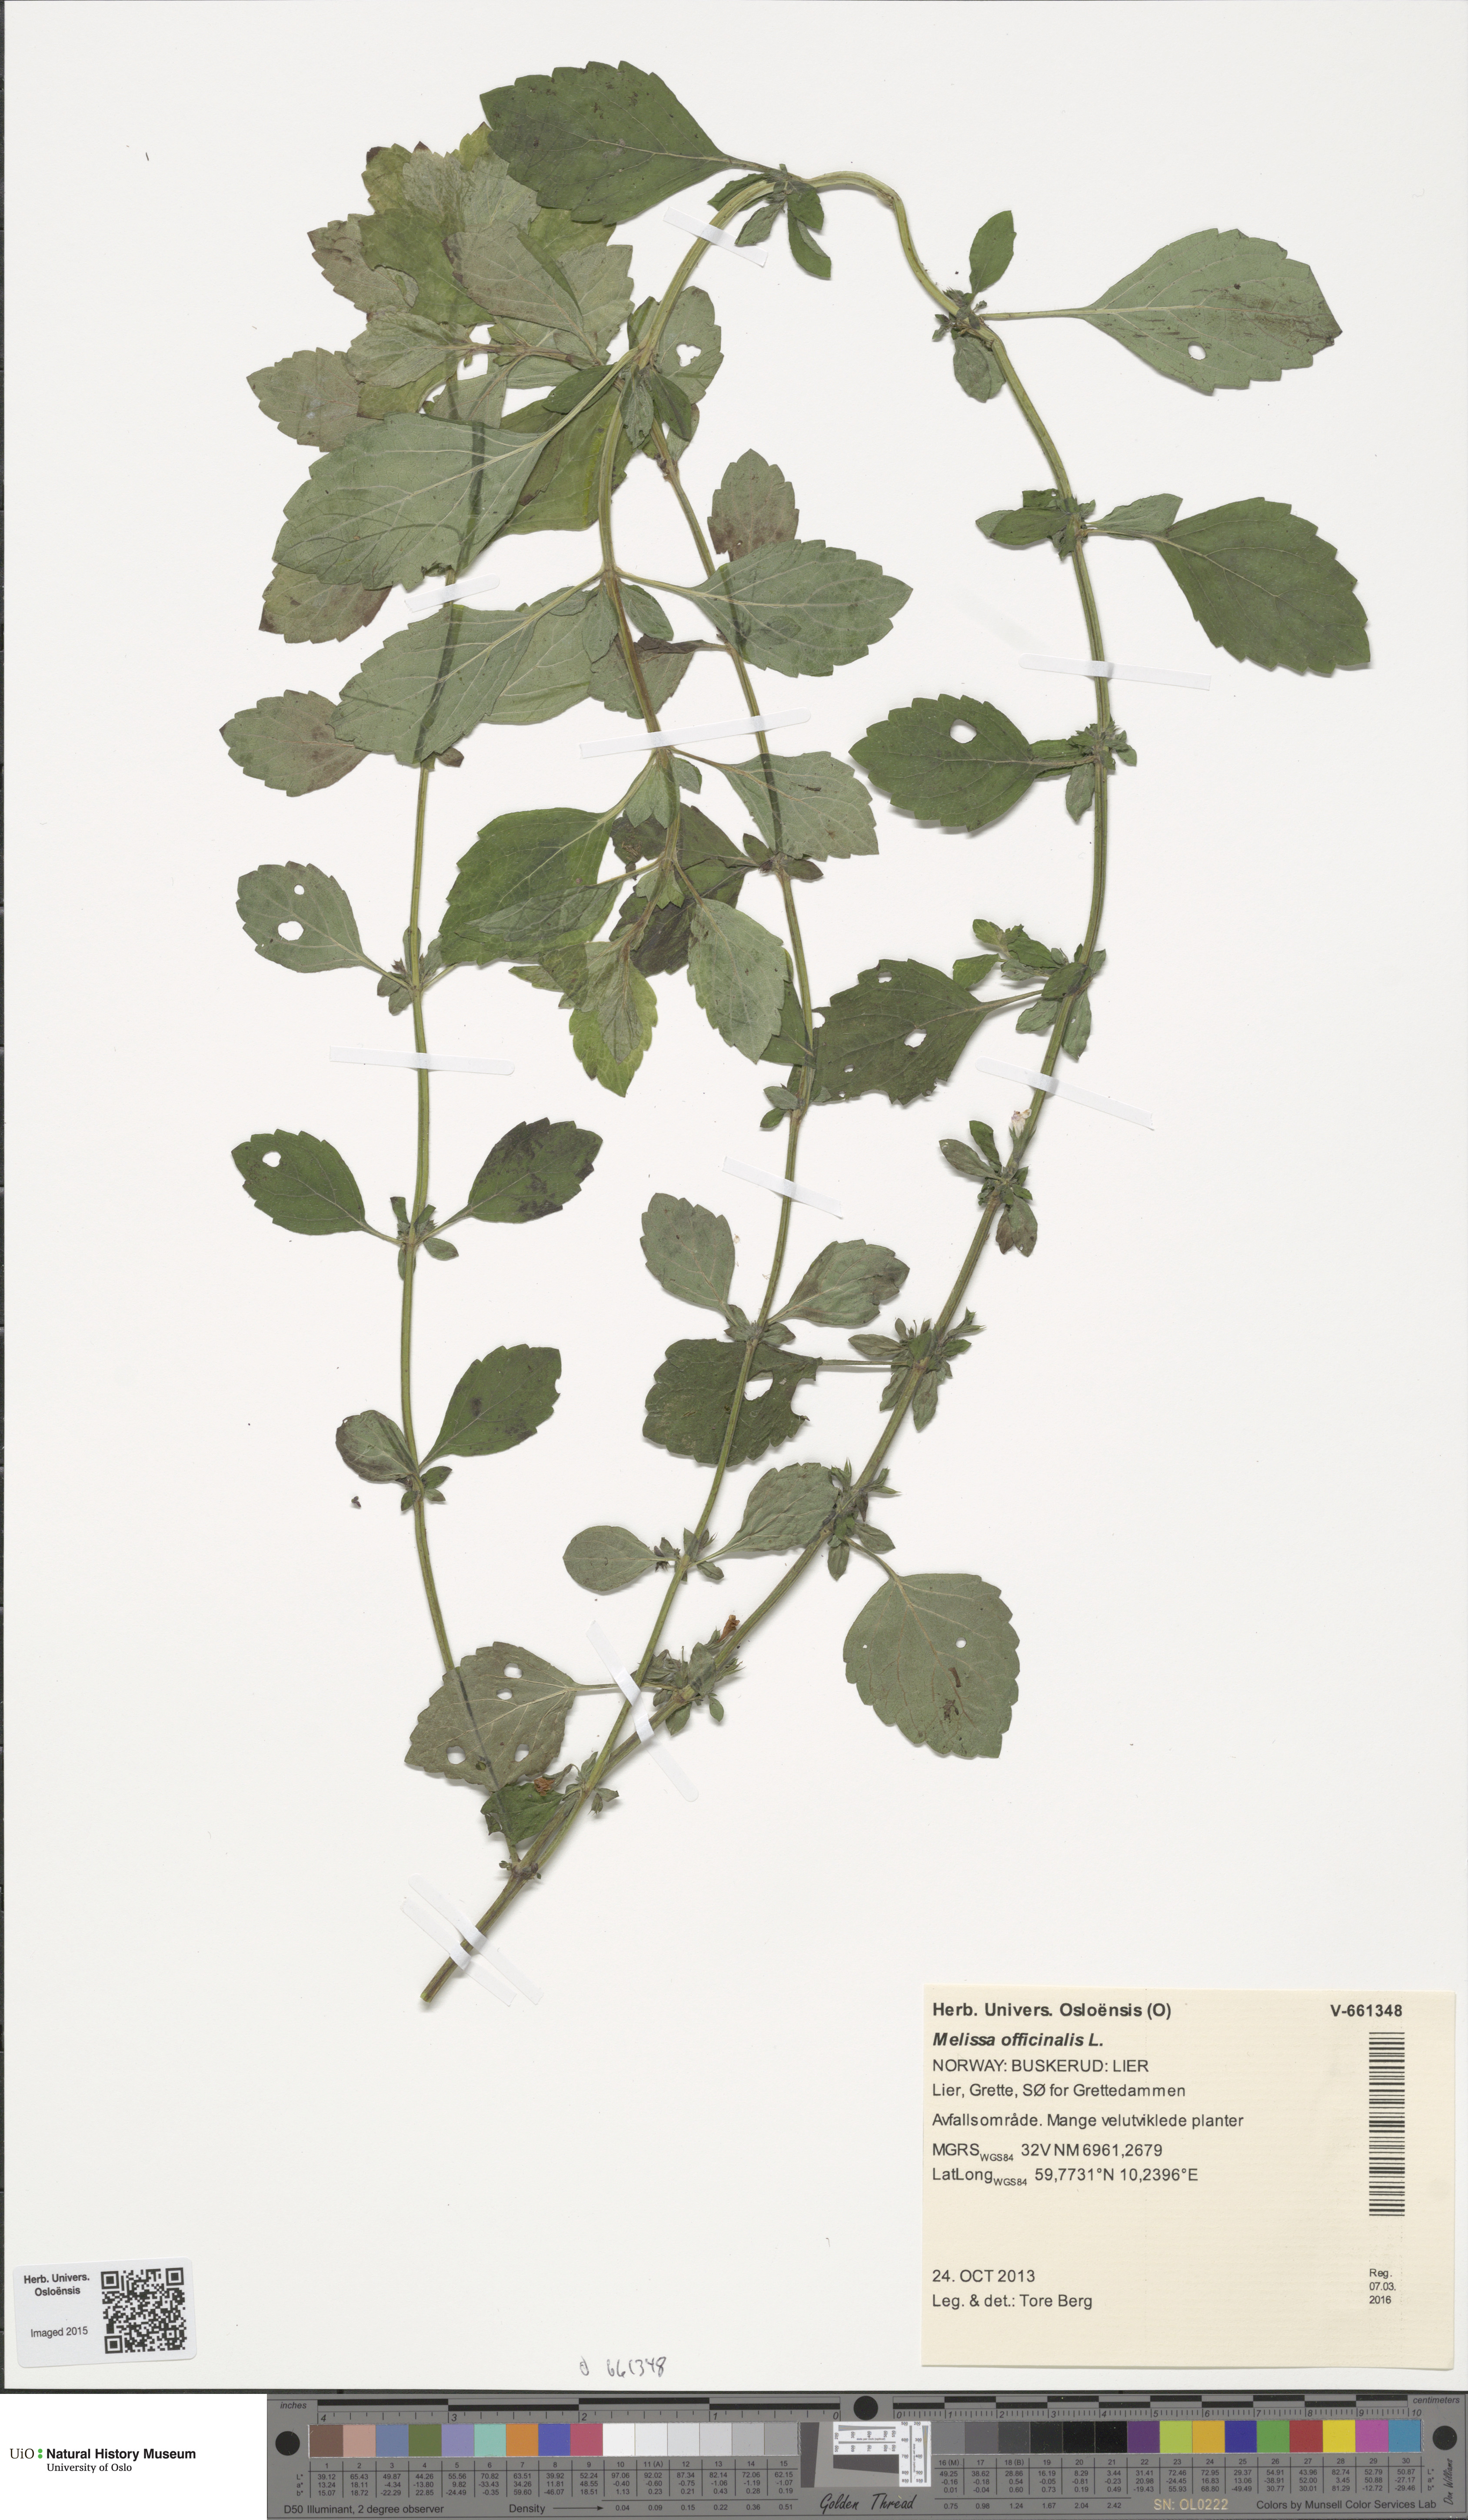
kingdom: Plantae
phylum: Tracheophyta
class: Magnoliopsida
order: Lamiales
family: Lamiaceae
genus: Melissa
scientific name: Melissa officinalis
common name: Balm
